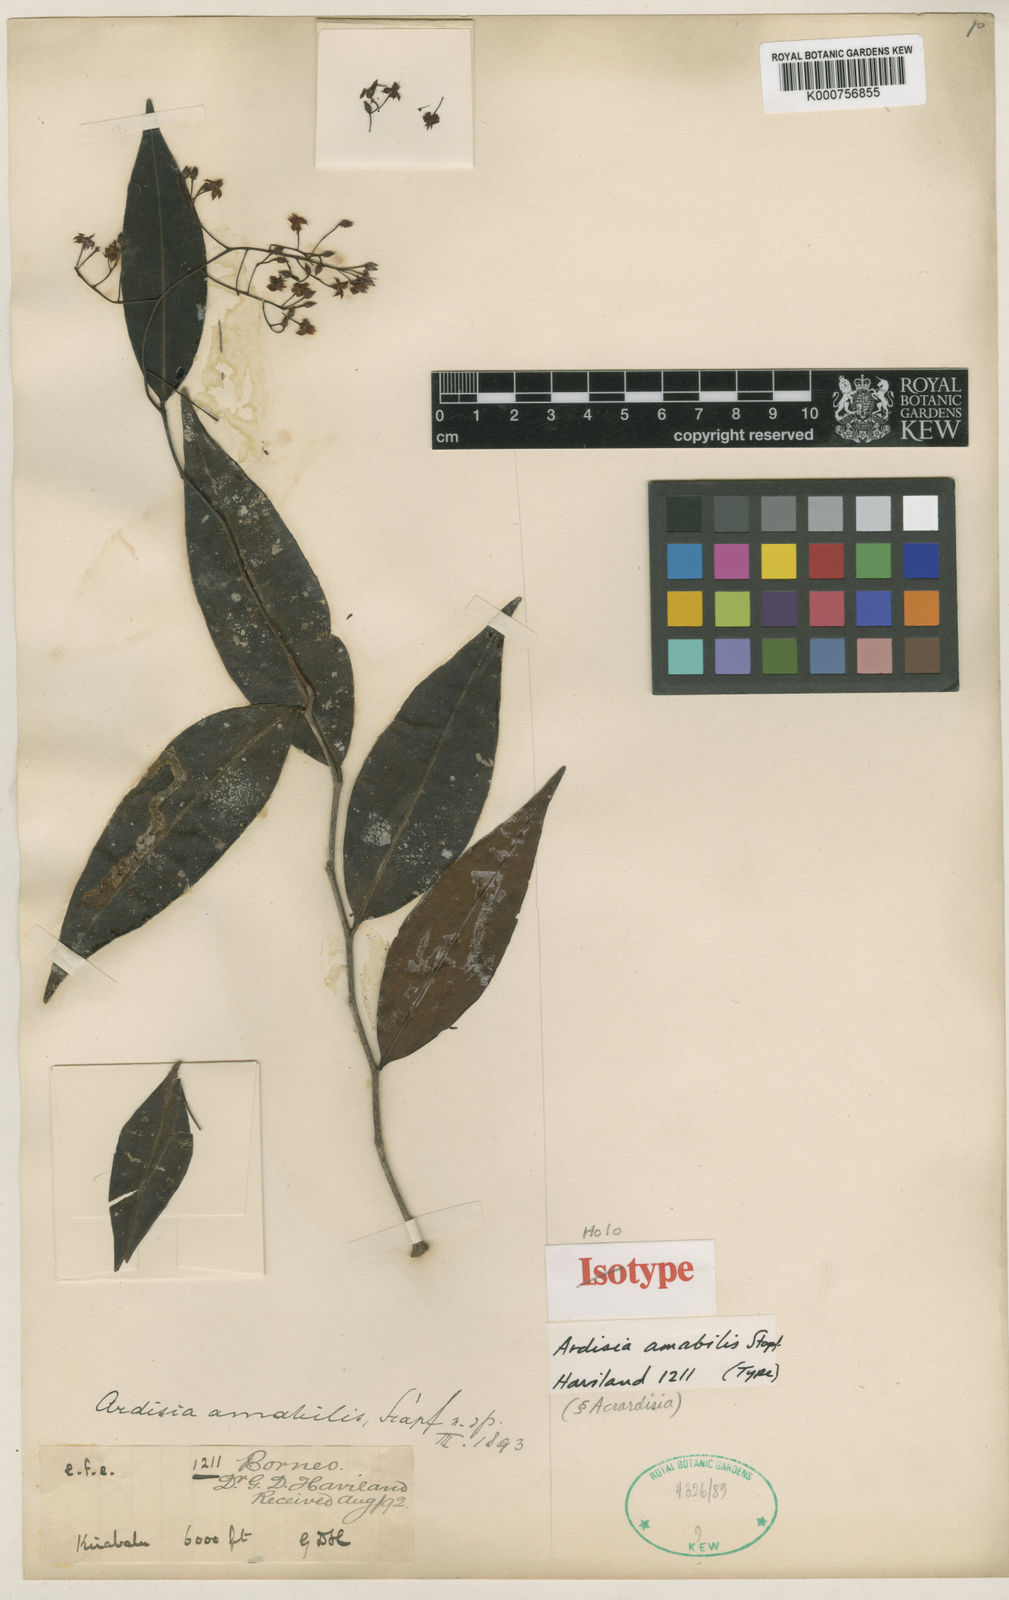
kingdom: Plantae
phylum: Tracheophyta
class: Magnoliopsida
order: Ericales
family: Primulaceae
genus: Ardisia
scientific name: Ardisia amabilis
